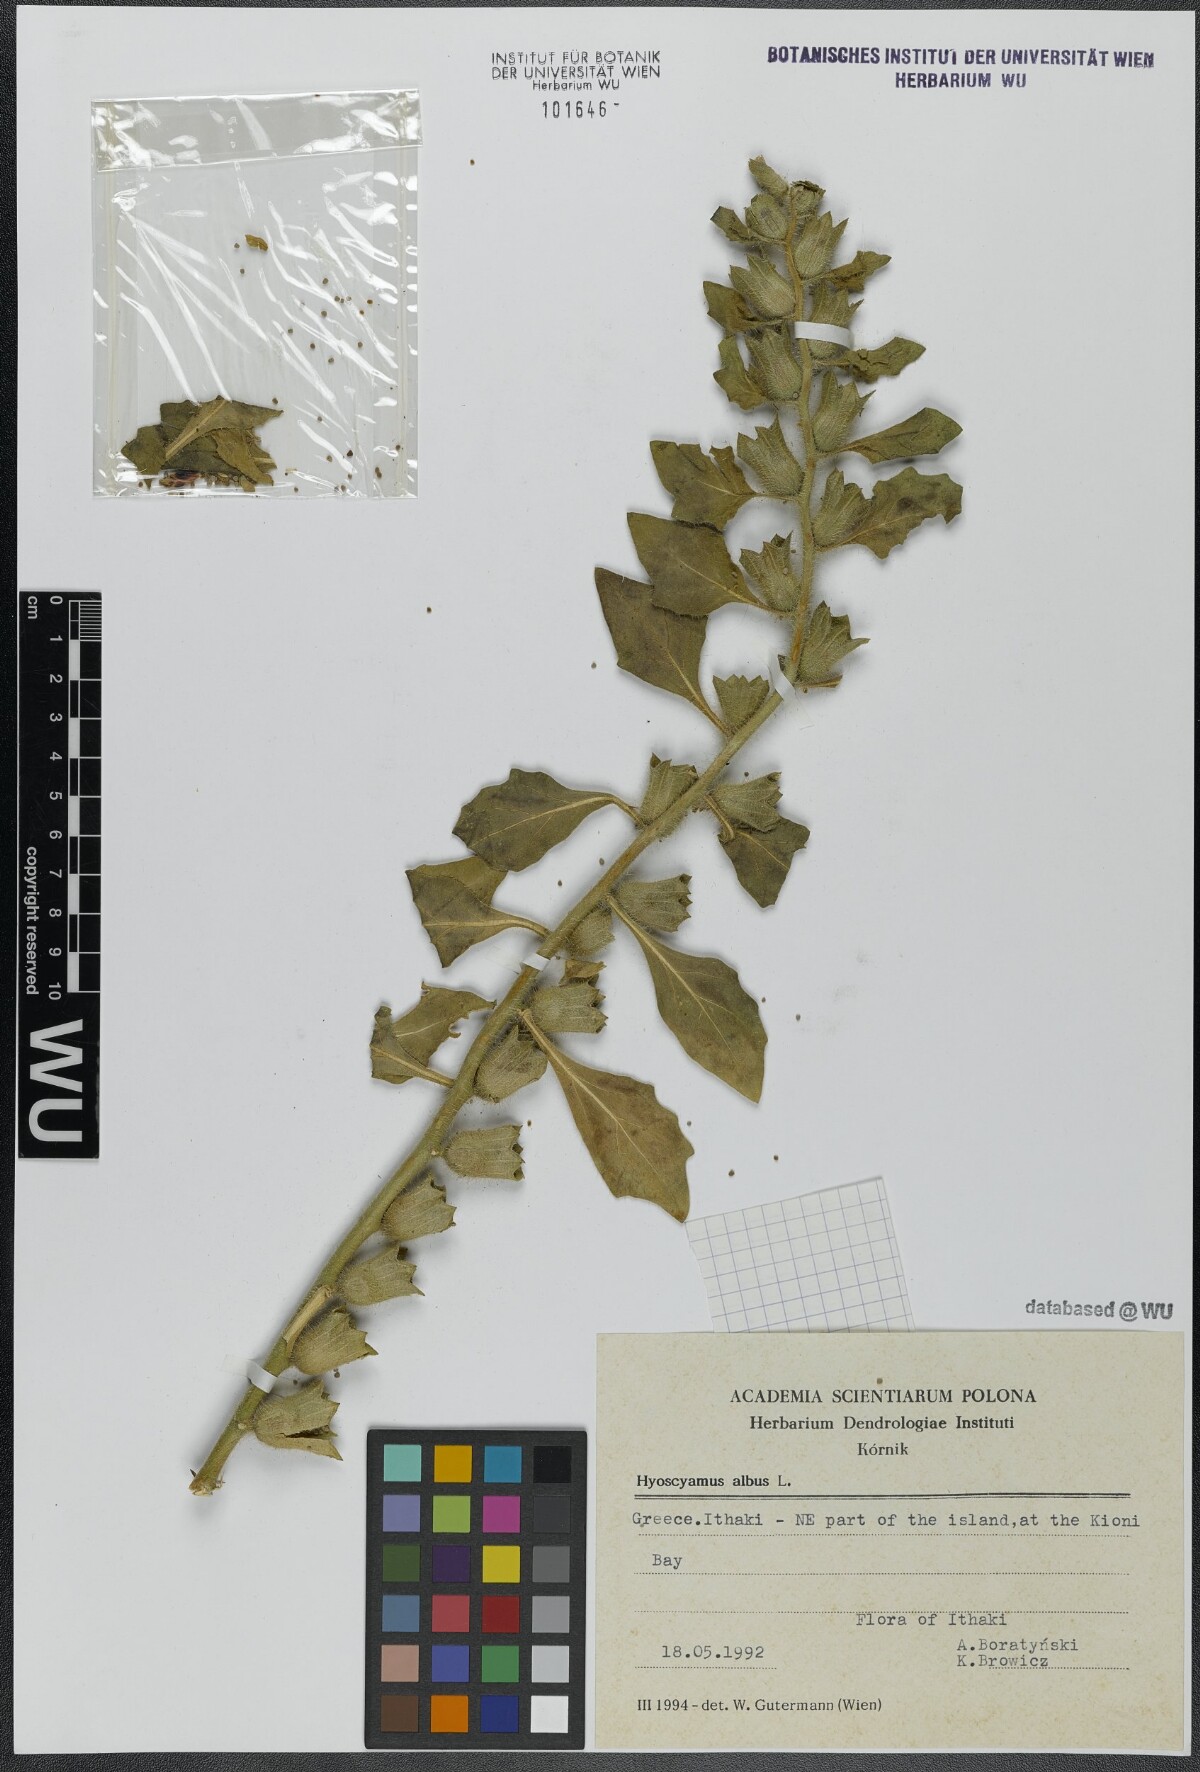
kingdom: Plantae
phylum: Tracheophyta
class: Magnoliopsida
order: Solanales
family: Solanaceae
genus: Hyoscyamus
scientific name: Hyoscyamus albus
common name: White henbane
